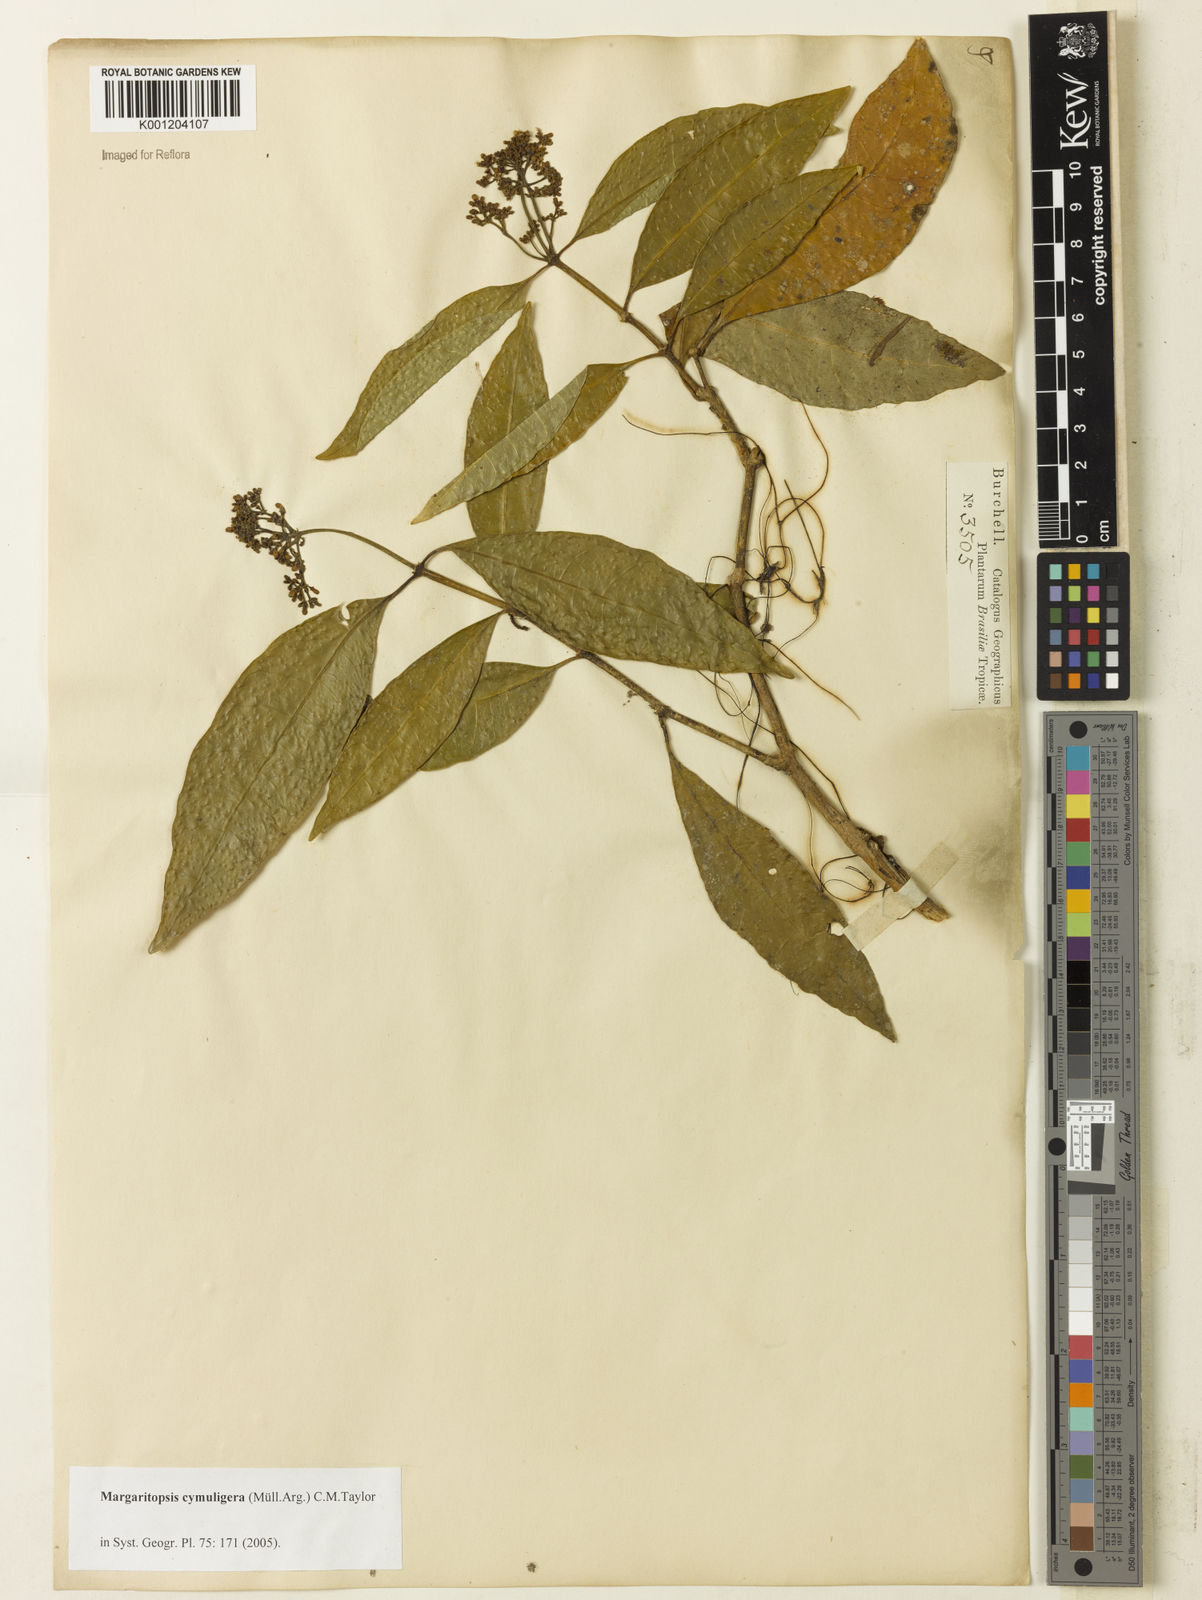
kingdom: Plantae
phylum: Tracheophyta
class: Magnoliopsida
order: Gentianales
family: Rubiaceae
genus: Eumachia
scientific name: Eumachia
